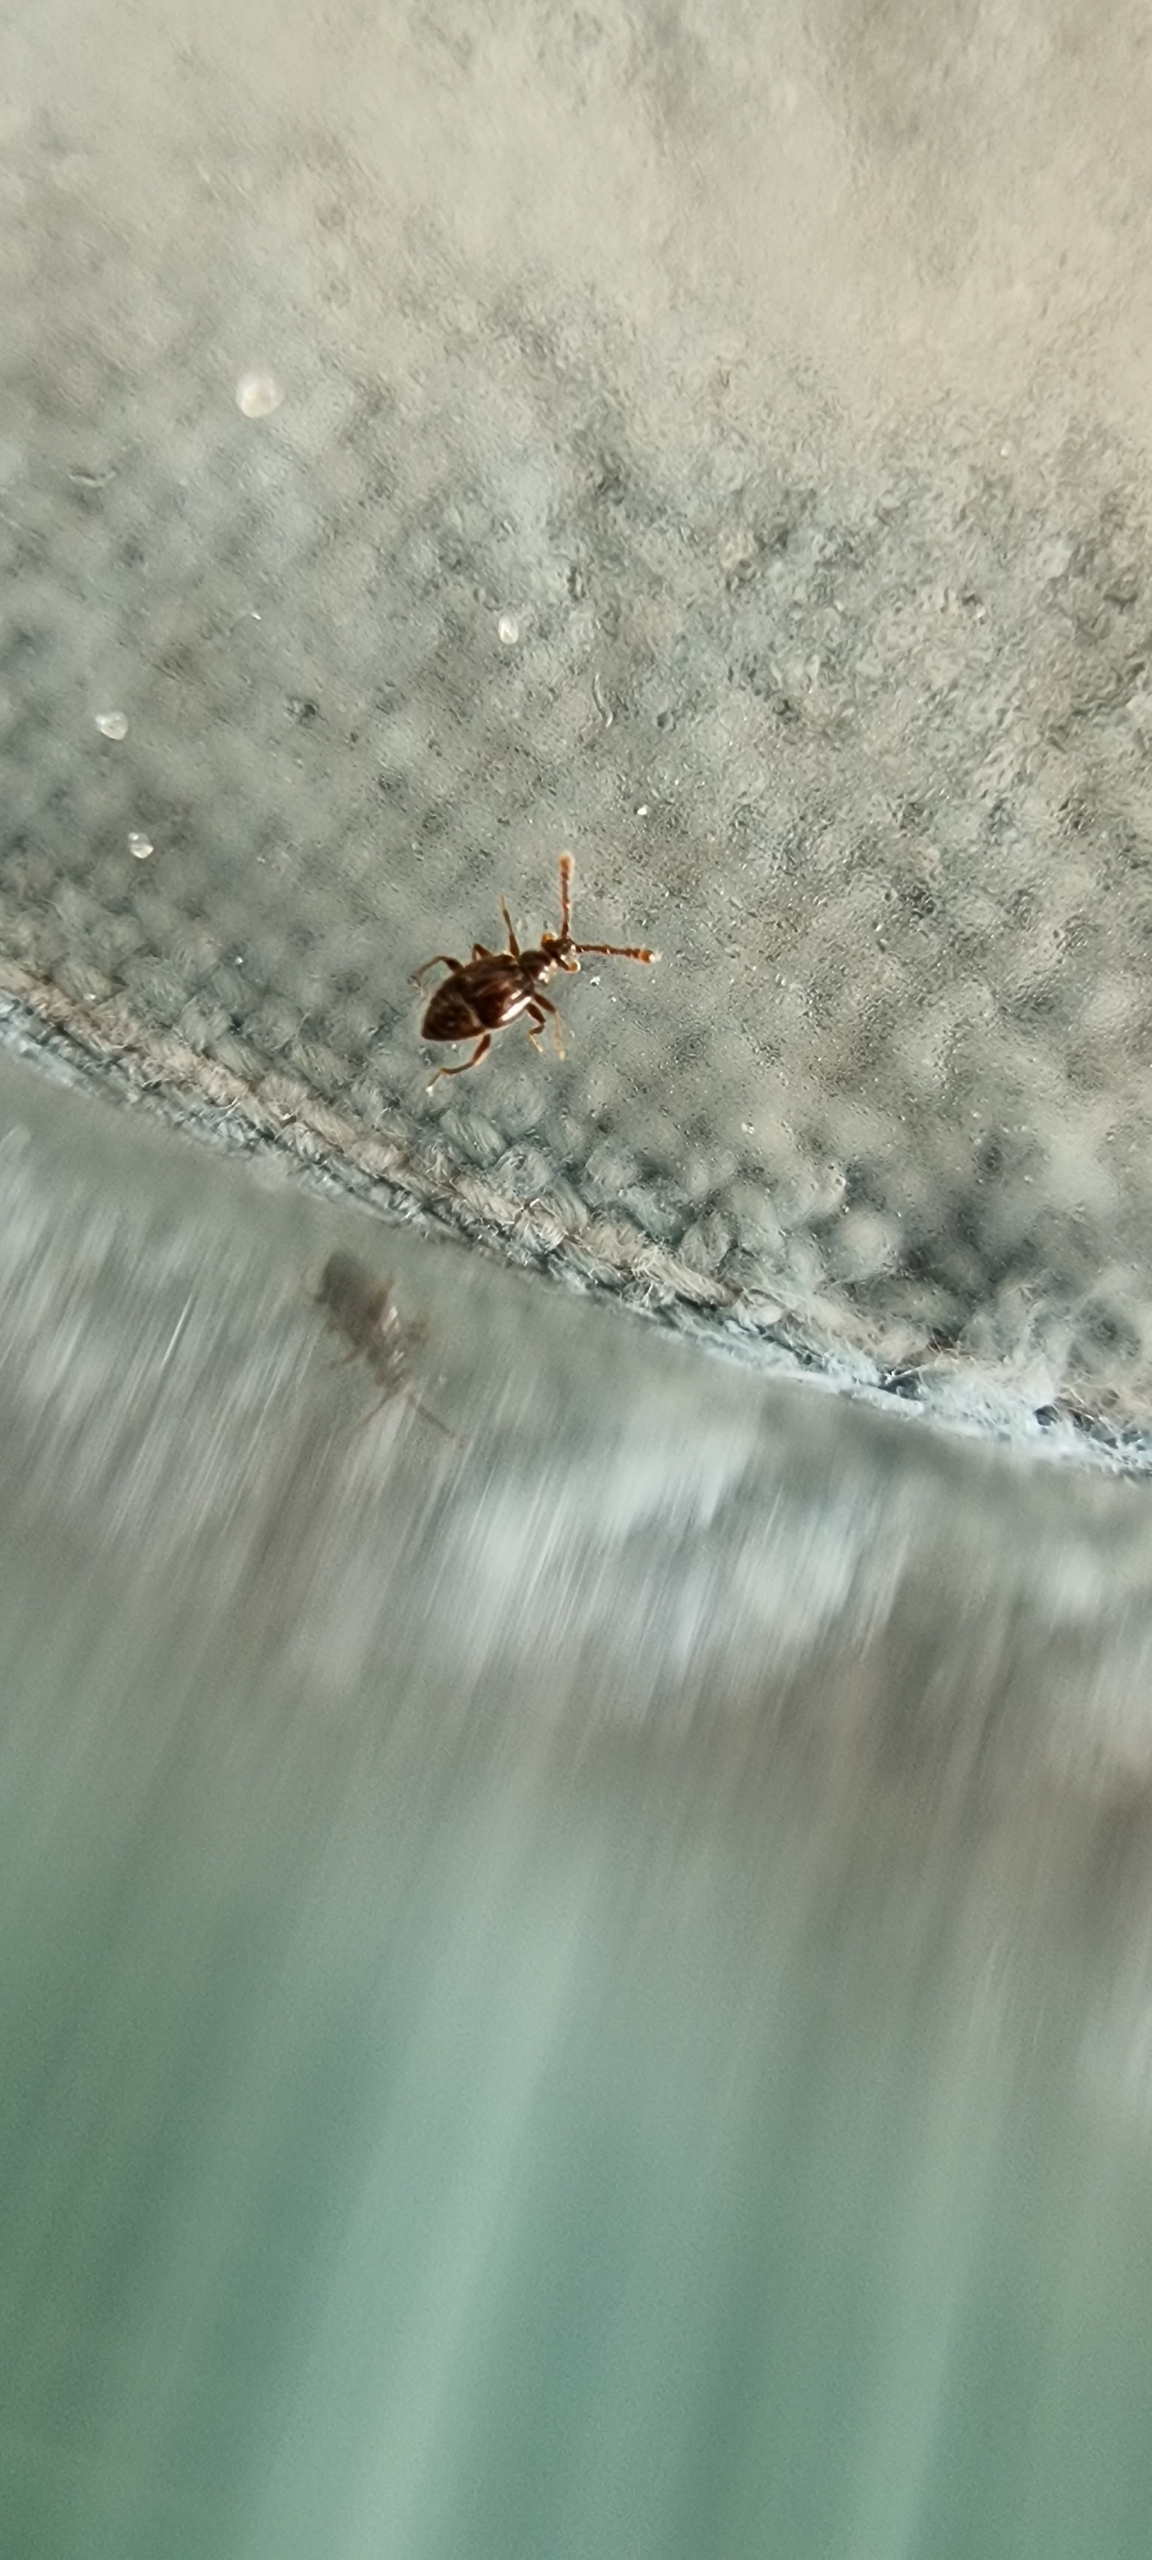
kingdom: Animalia
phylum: Arthropoda
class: Insecta
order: Coleoptera
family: Staphylinidae
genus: Tychus
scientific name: Tychus niger
